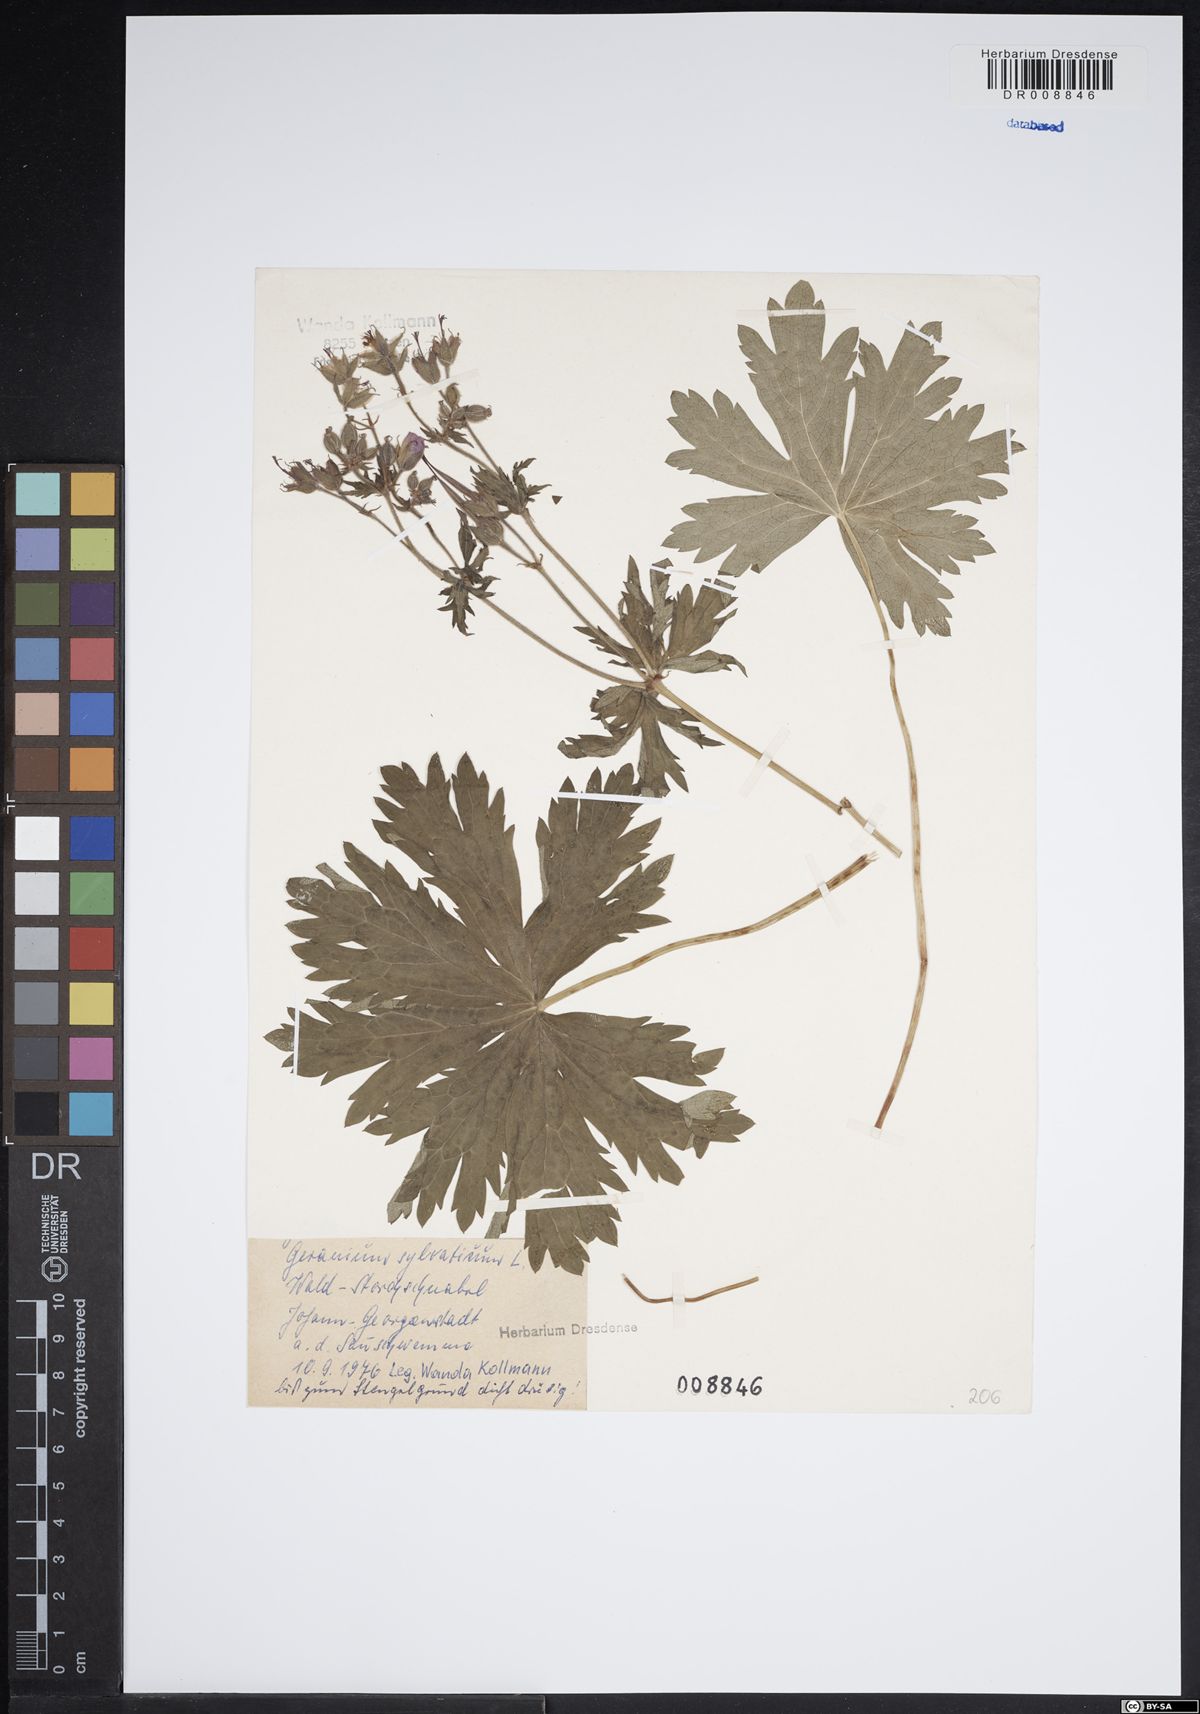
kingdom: Plantae
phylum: Tracheophyta
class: Magnoliopsida
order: Geraniales
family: Geraniaceae
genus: Geranium
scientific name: Geranium sylvaticum
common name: Wood crane's-bill
